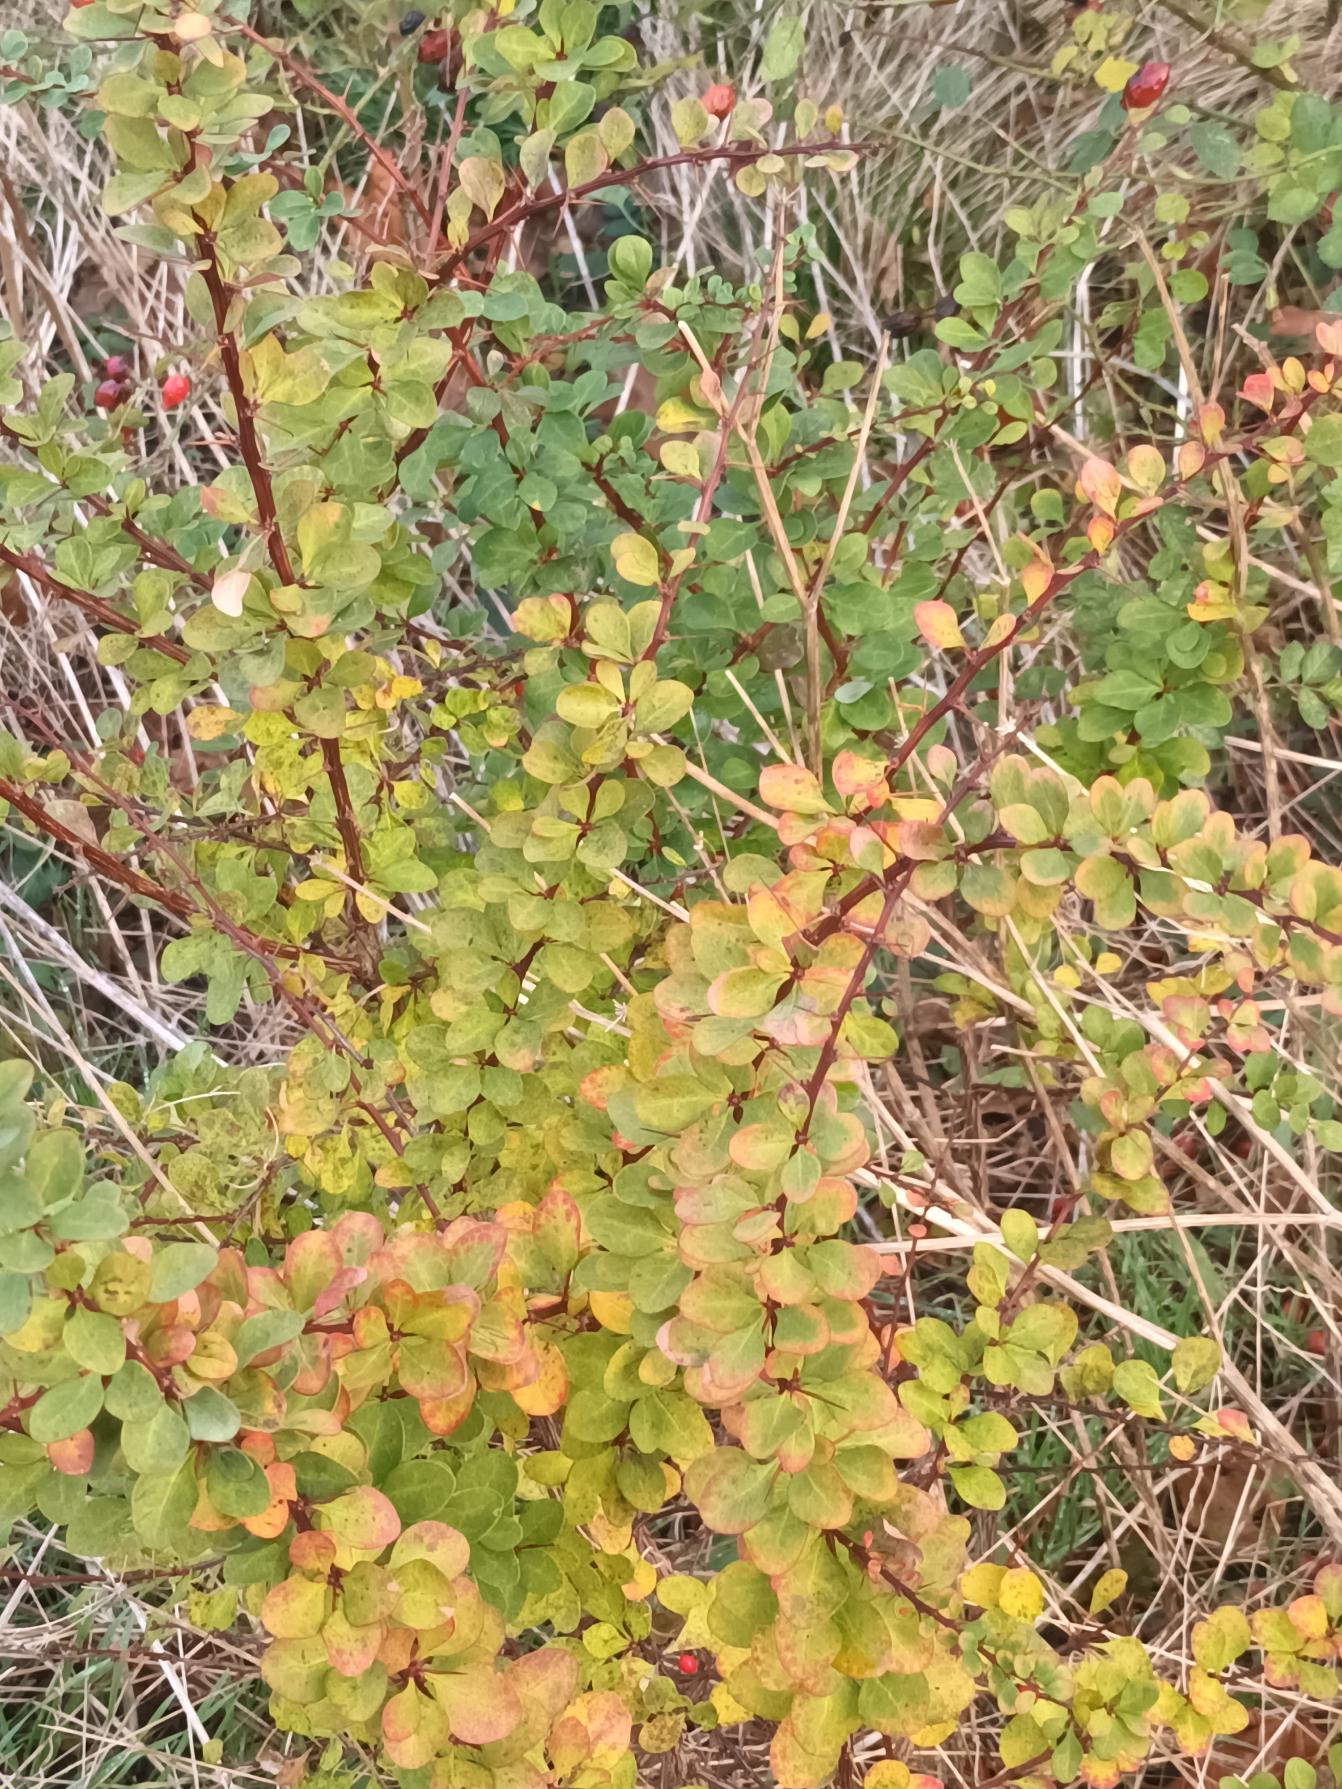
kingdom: Plantae
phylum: Tracheophyta
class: Magnoliopsida
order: Ranunculales
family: Berberidaceae
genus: Berberis
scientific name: Berberis thunbergii
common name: Hæk-berberis
